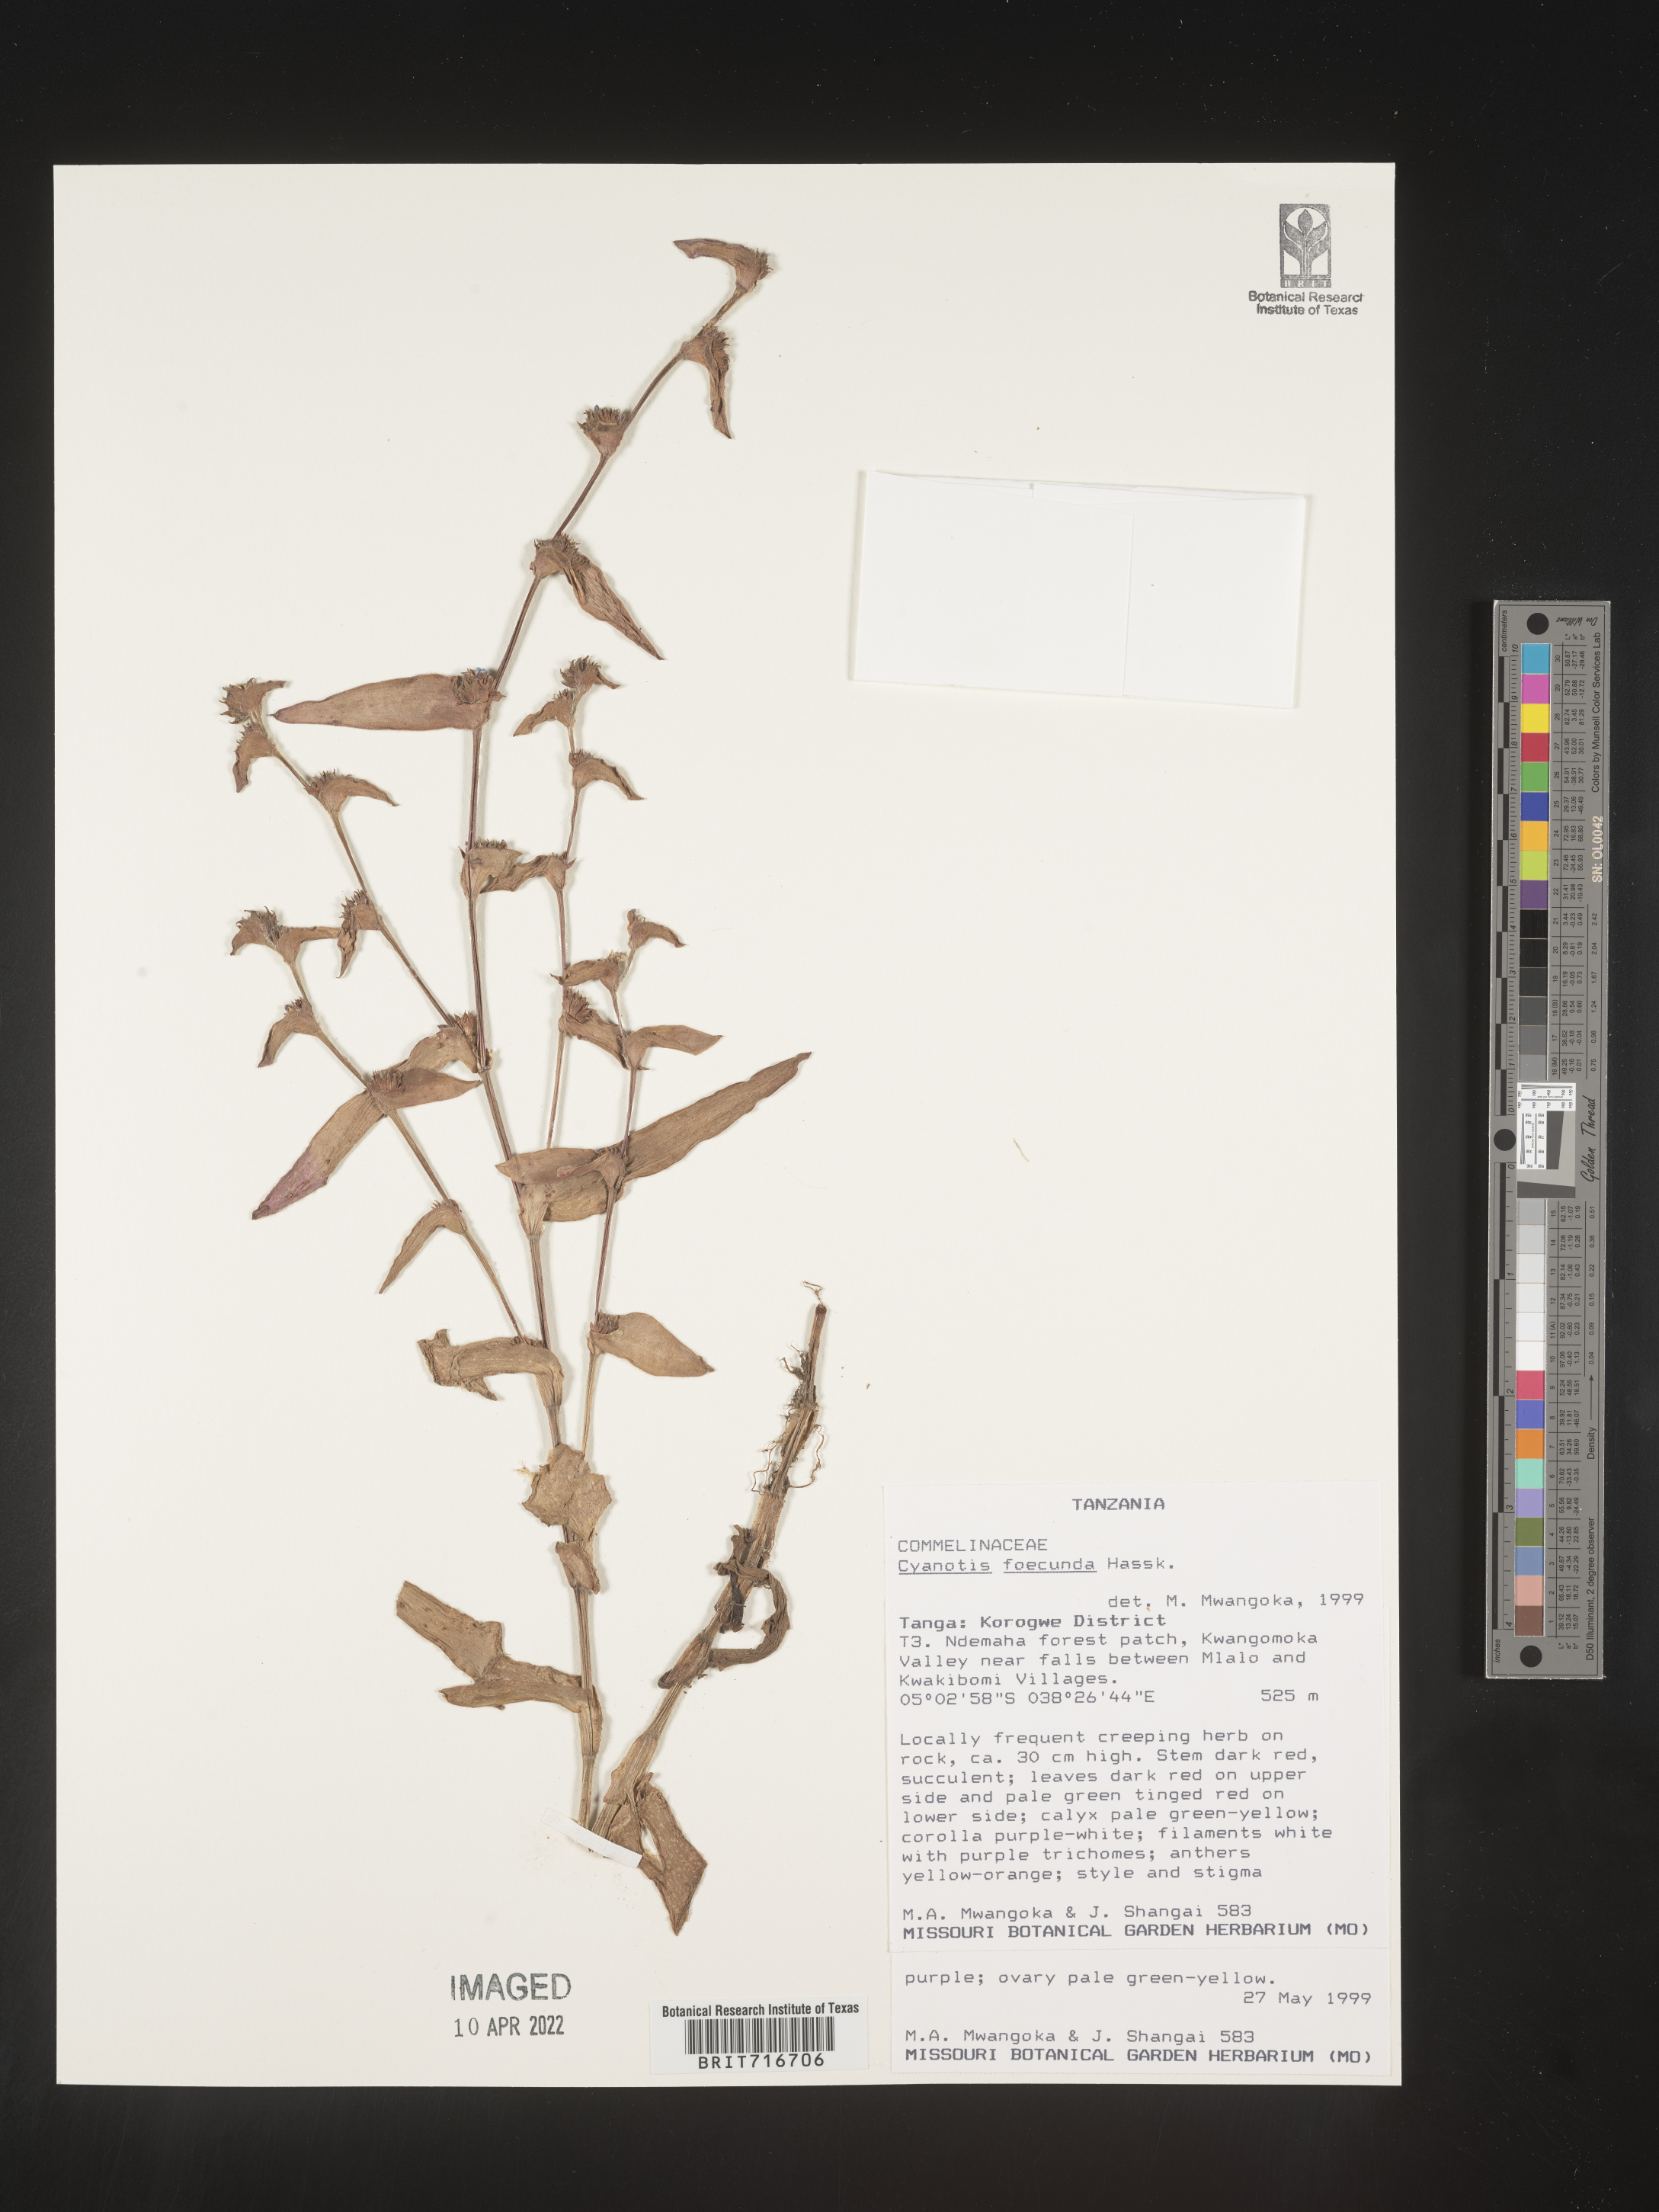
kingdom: Plantae
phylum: Tracheophyta
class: Liliopsida
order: Commelinales
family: Commelinaceae
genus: Cyanotis
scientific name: Cyanotis
